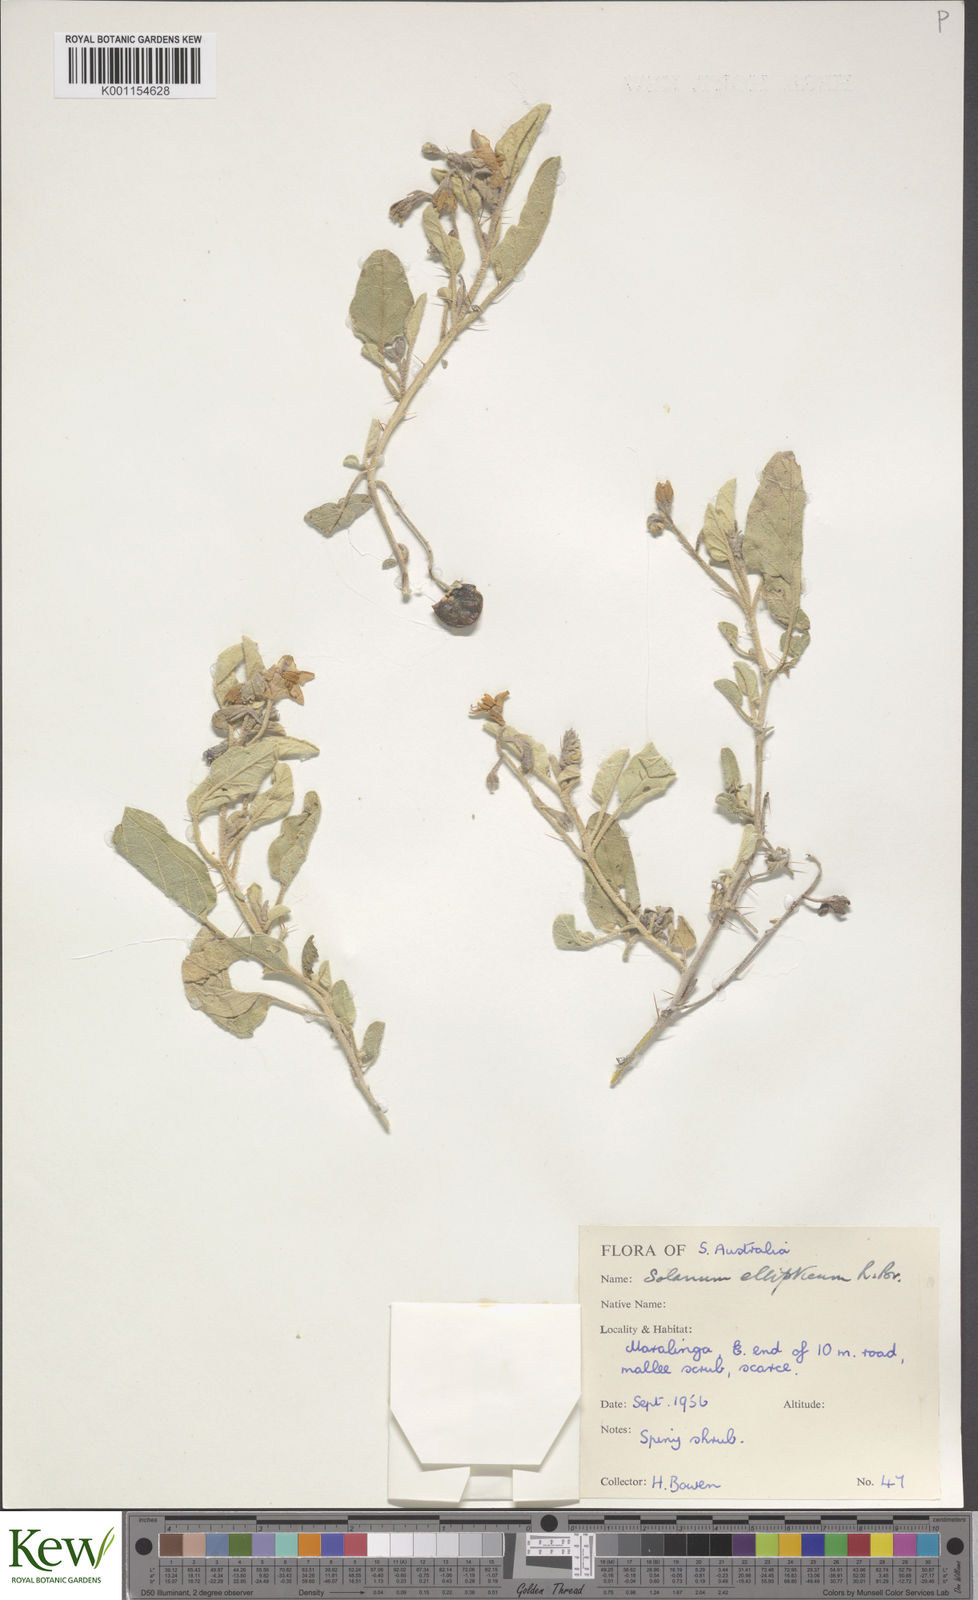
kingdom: Plantae
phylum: Tracheophyta
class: Magnoliopsida
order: Solanales
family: Solanaceae
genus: Solanum
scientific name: Solanum ellipticum
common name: Potato-bush
